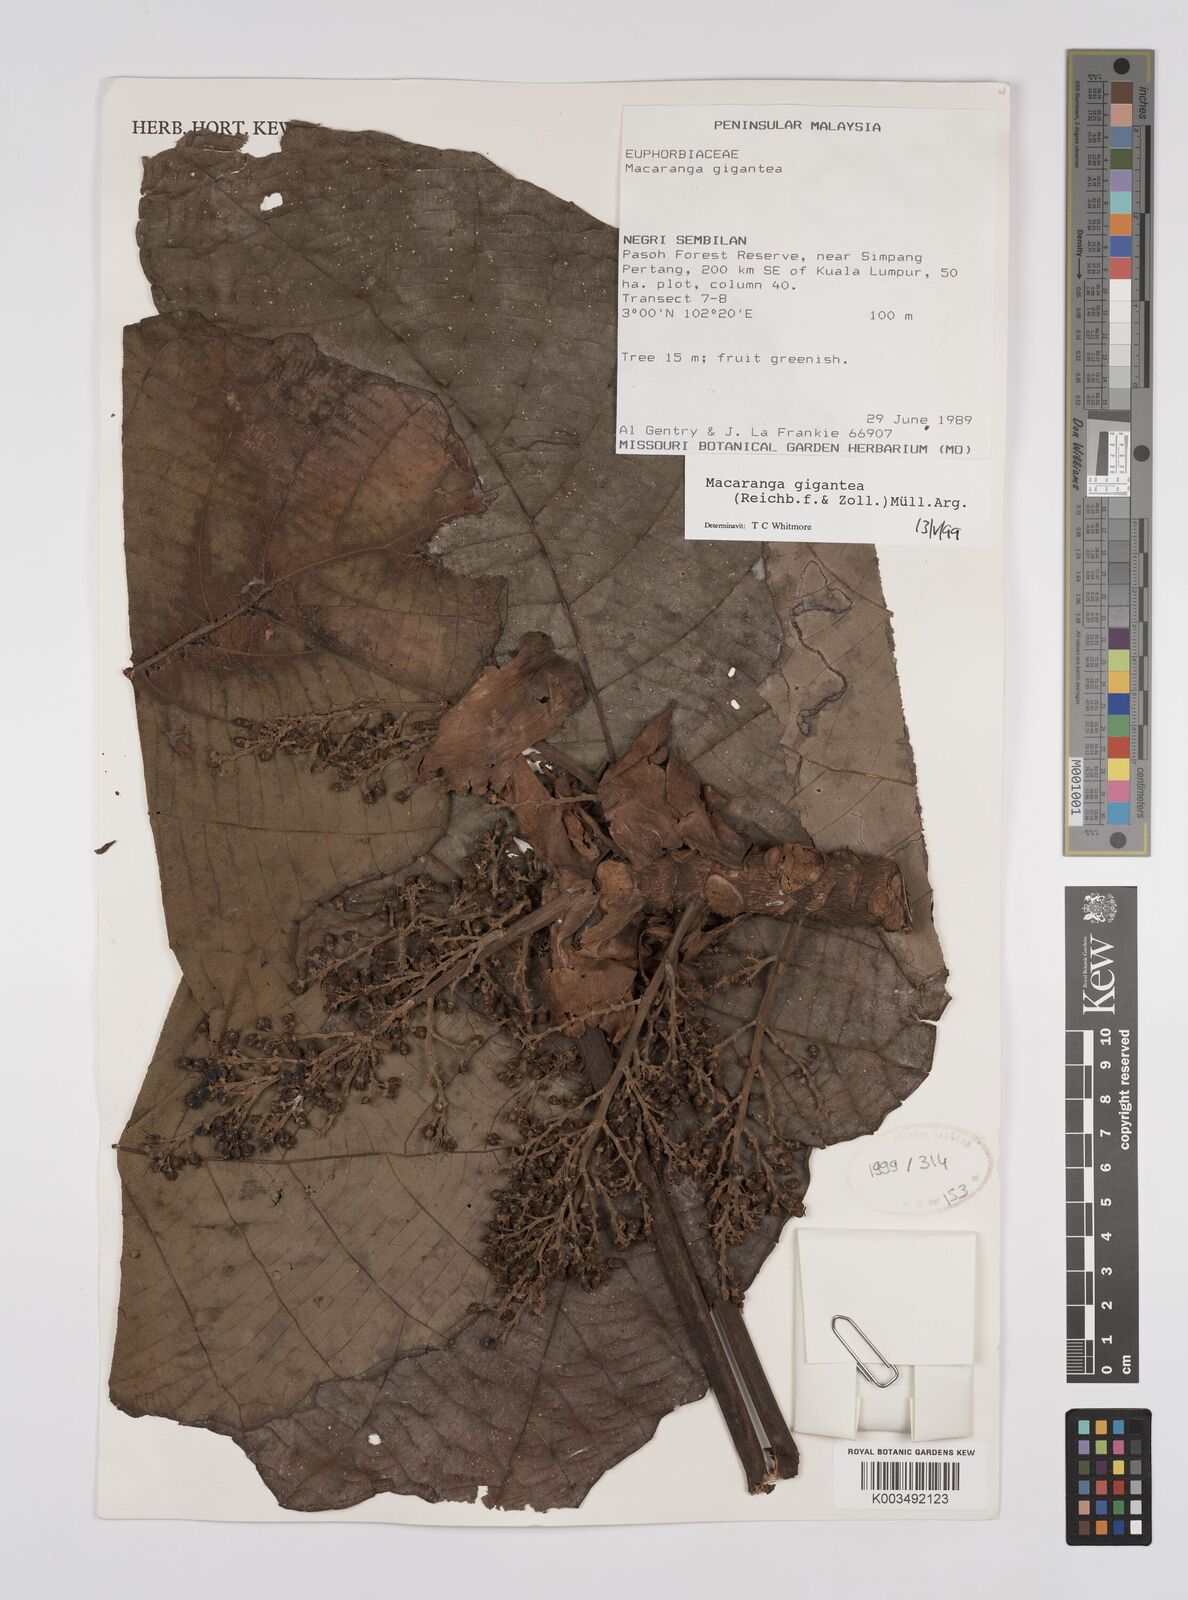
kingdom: Plantae
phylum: Tracheophyta
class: Magnoliopsida
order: Malpighiales
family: Euphorbiaceae
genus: Macaranga
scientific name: Macaranga gigantea
